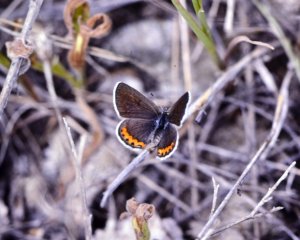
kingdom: Animalia
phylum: Arthropoda
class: Insecta
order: Lepidoptera
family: Lycaenidae
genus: Plebejus
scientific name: Plebejus lupini
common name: Lupine Blue
